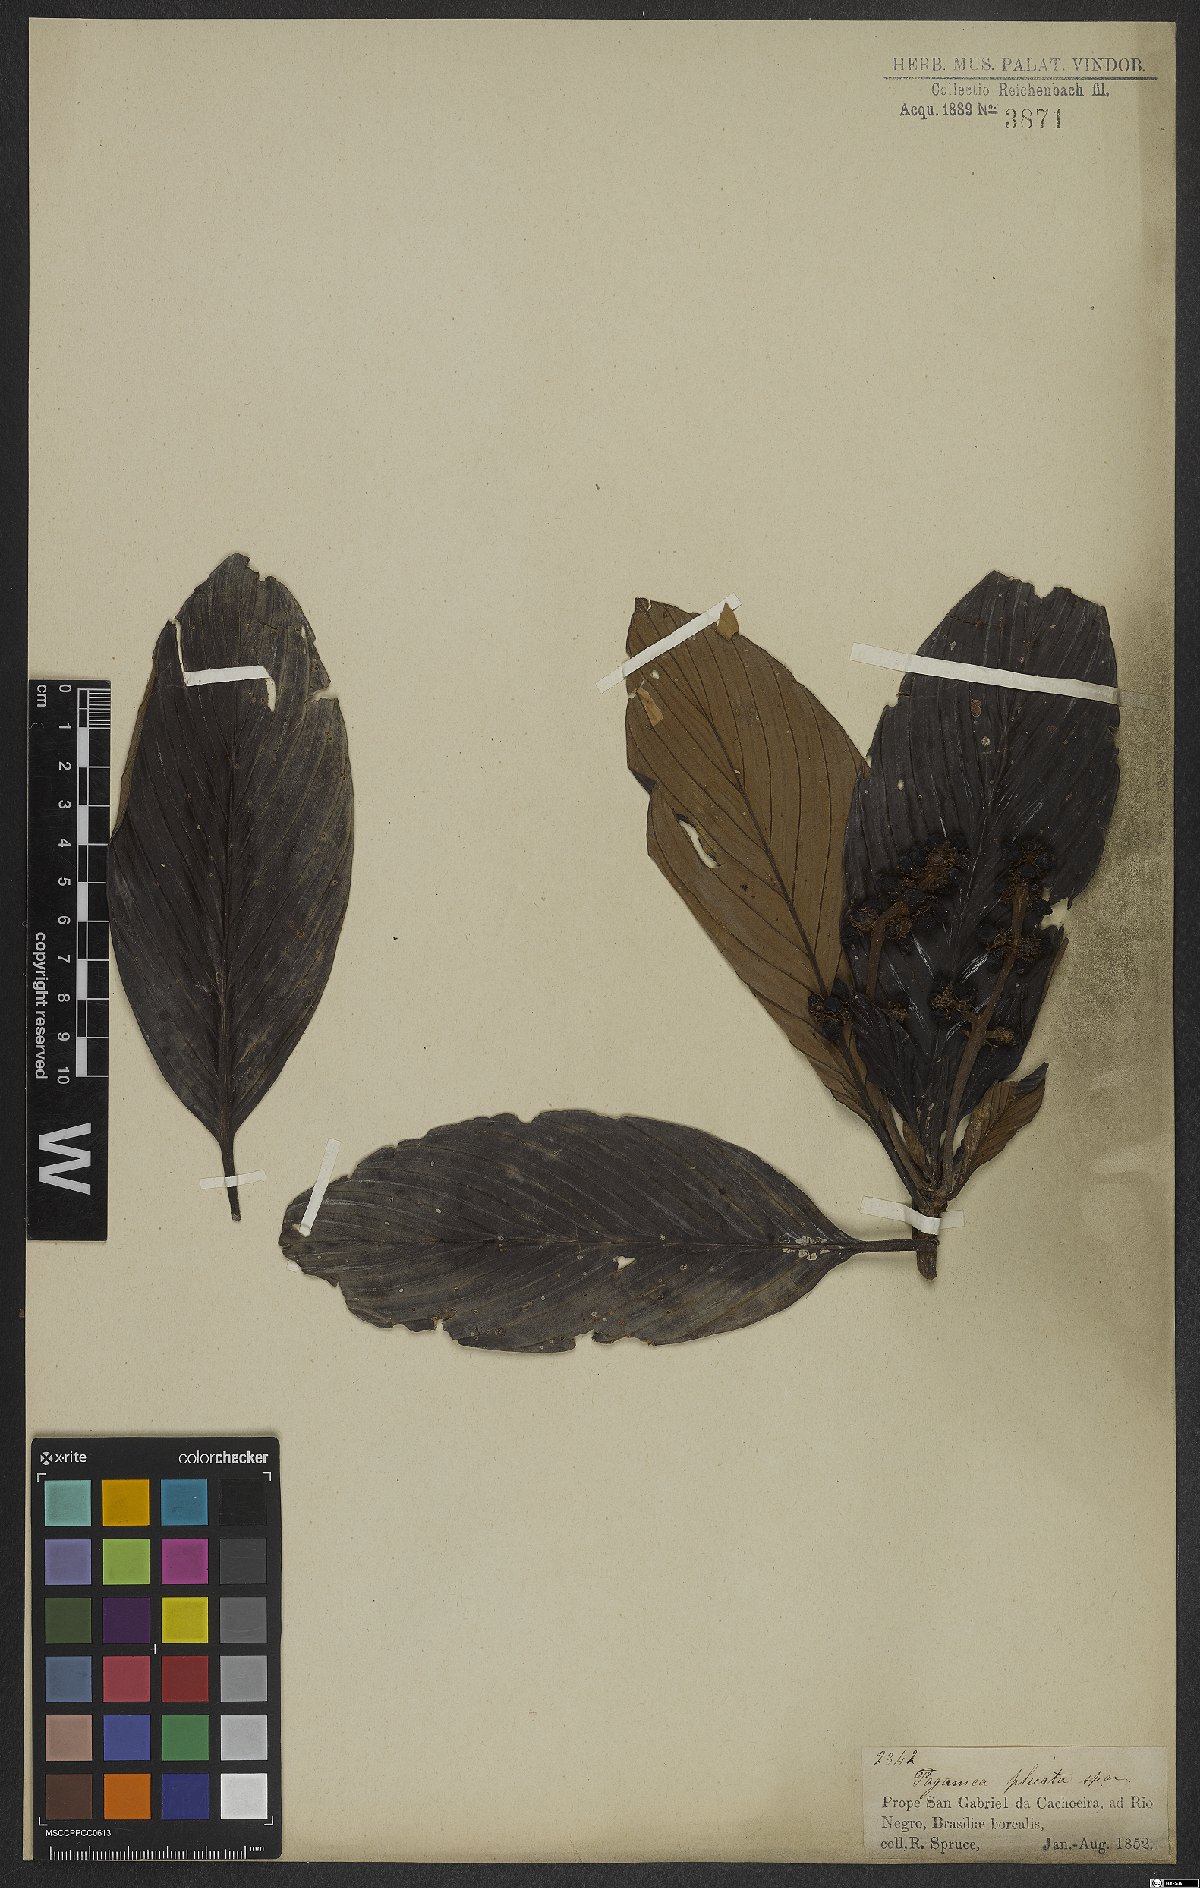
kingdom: Plantae
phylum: Tracheophyta
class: Magnoliopsida
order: Gentianales
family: Rubiaceae
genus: Pagamea
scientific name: Pagamea plicata
